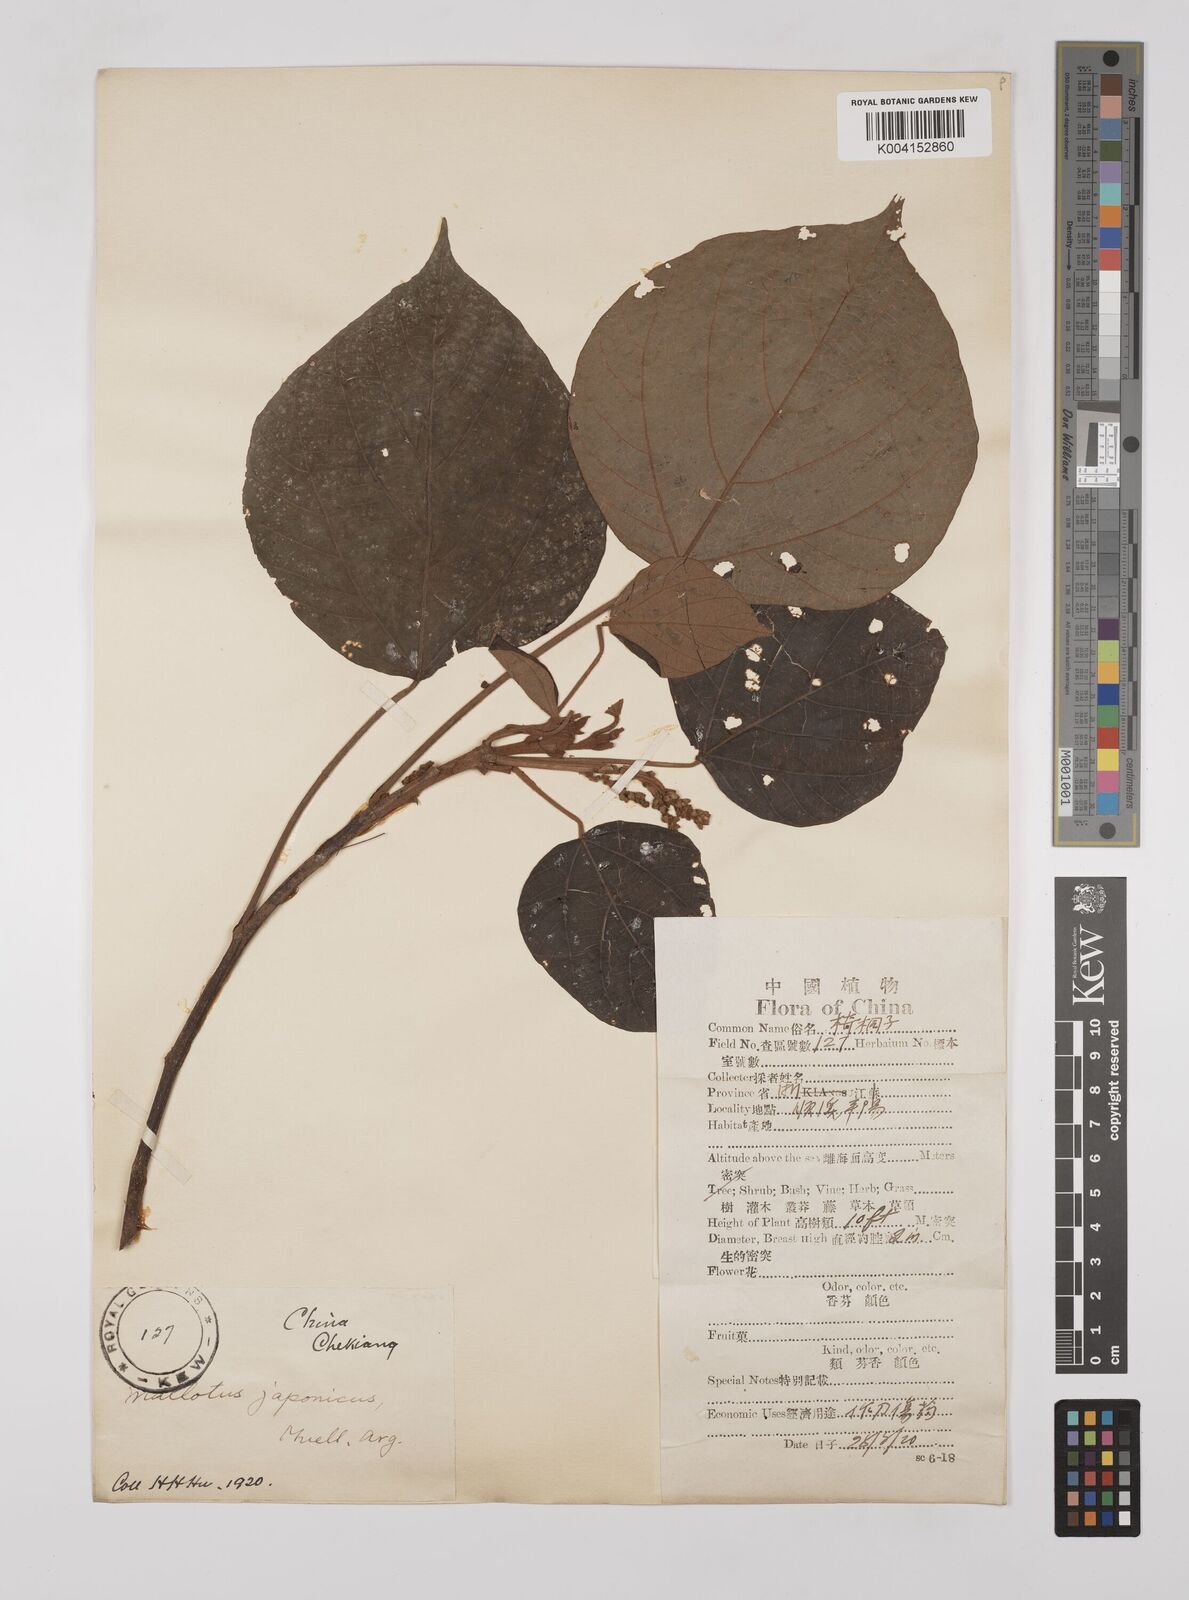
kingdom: Plantae
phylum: Tracheophyta
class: Magnoliopsida
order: Malpighiales
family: Euphorbiaceae
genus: Mallotus
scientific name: Mallotus lianus
